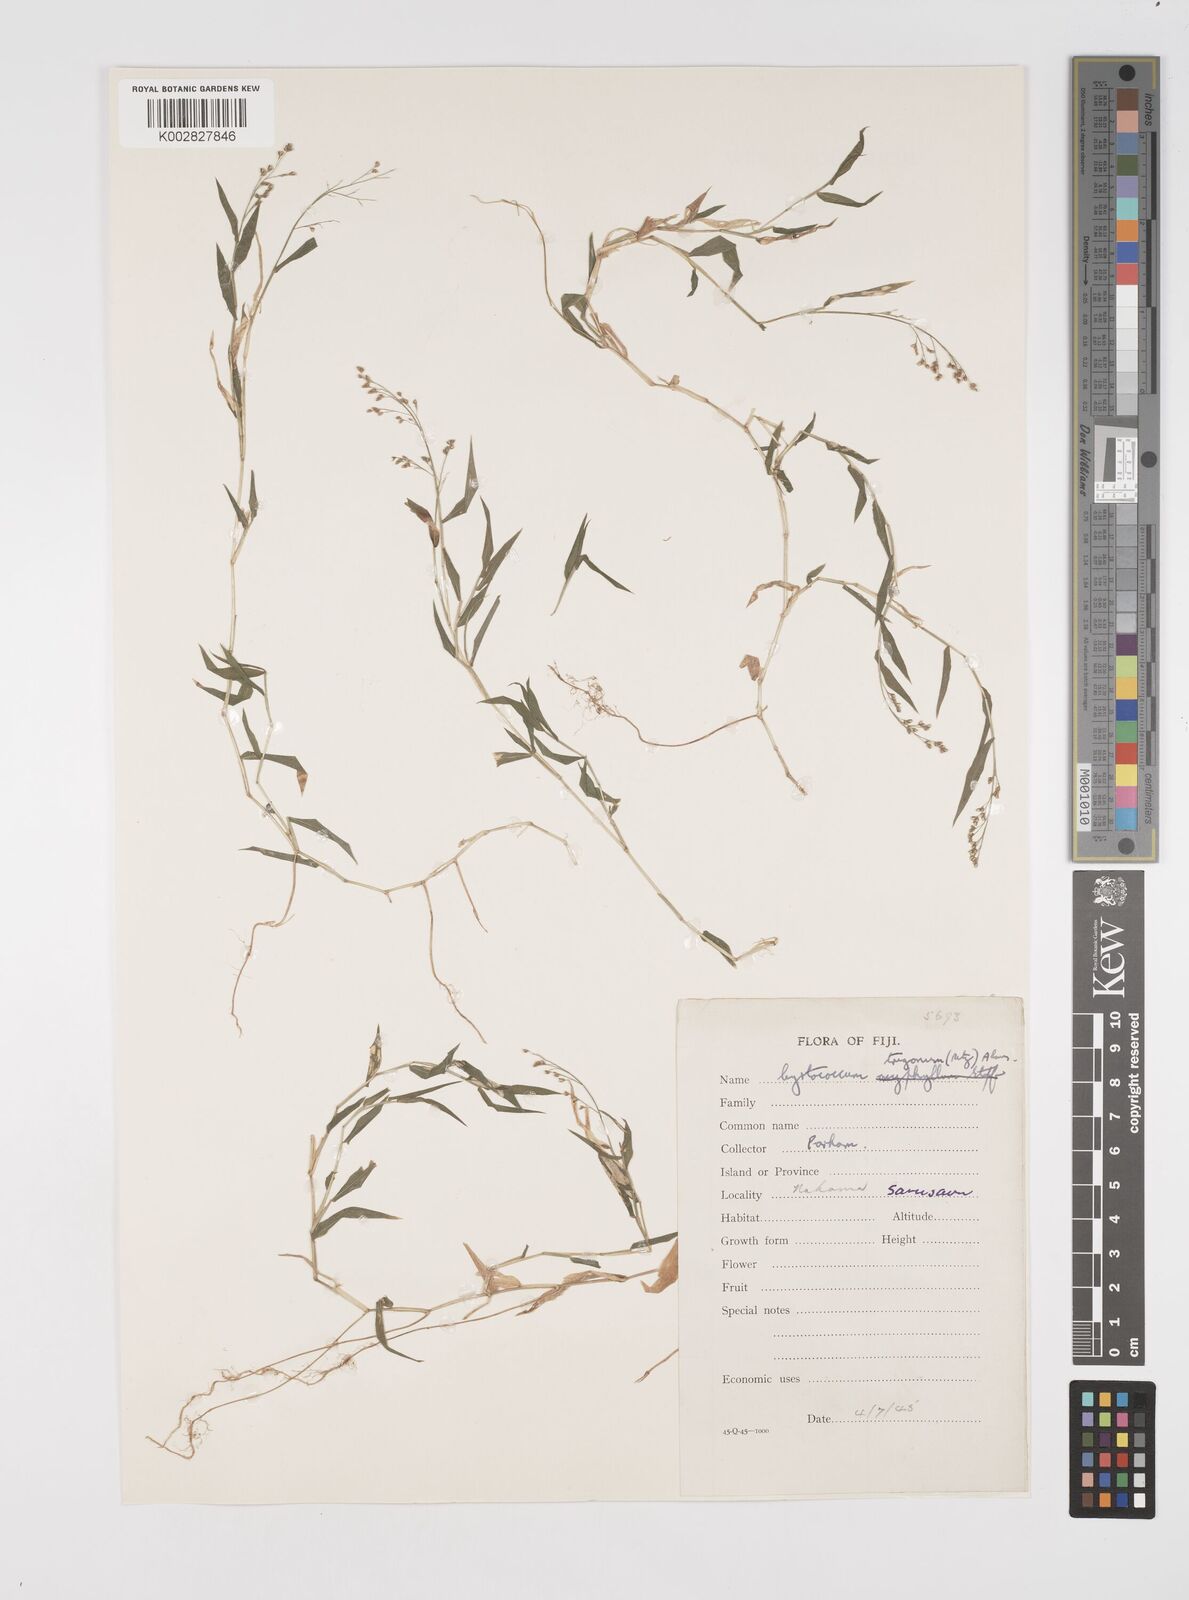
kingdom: Plantae
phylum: Tracheophyta
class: Liliopsida
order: Poales
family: Poaceae
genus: Cyrtococcum
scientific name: Cyrtococcum trigonum
